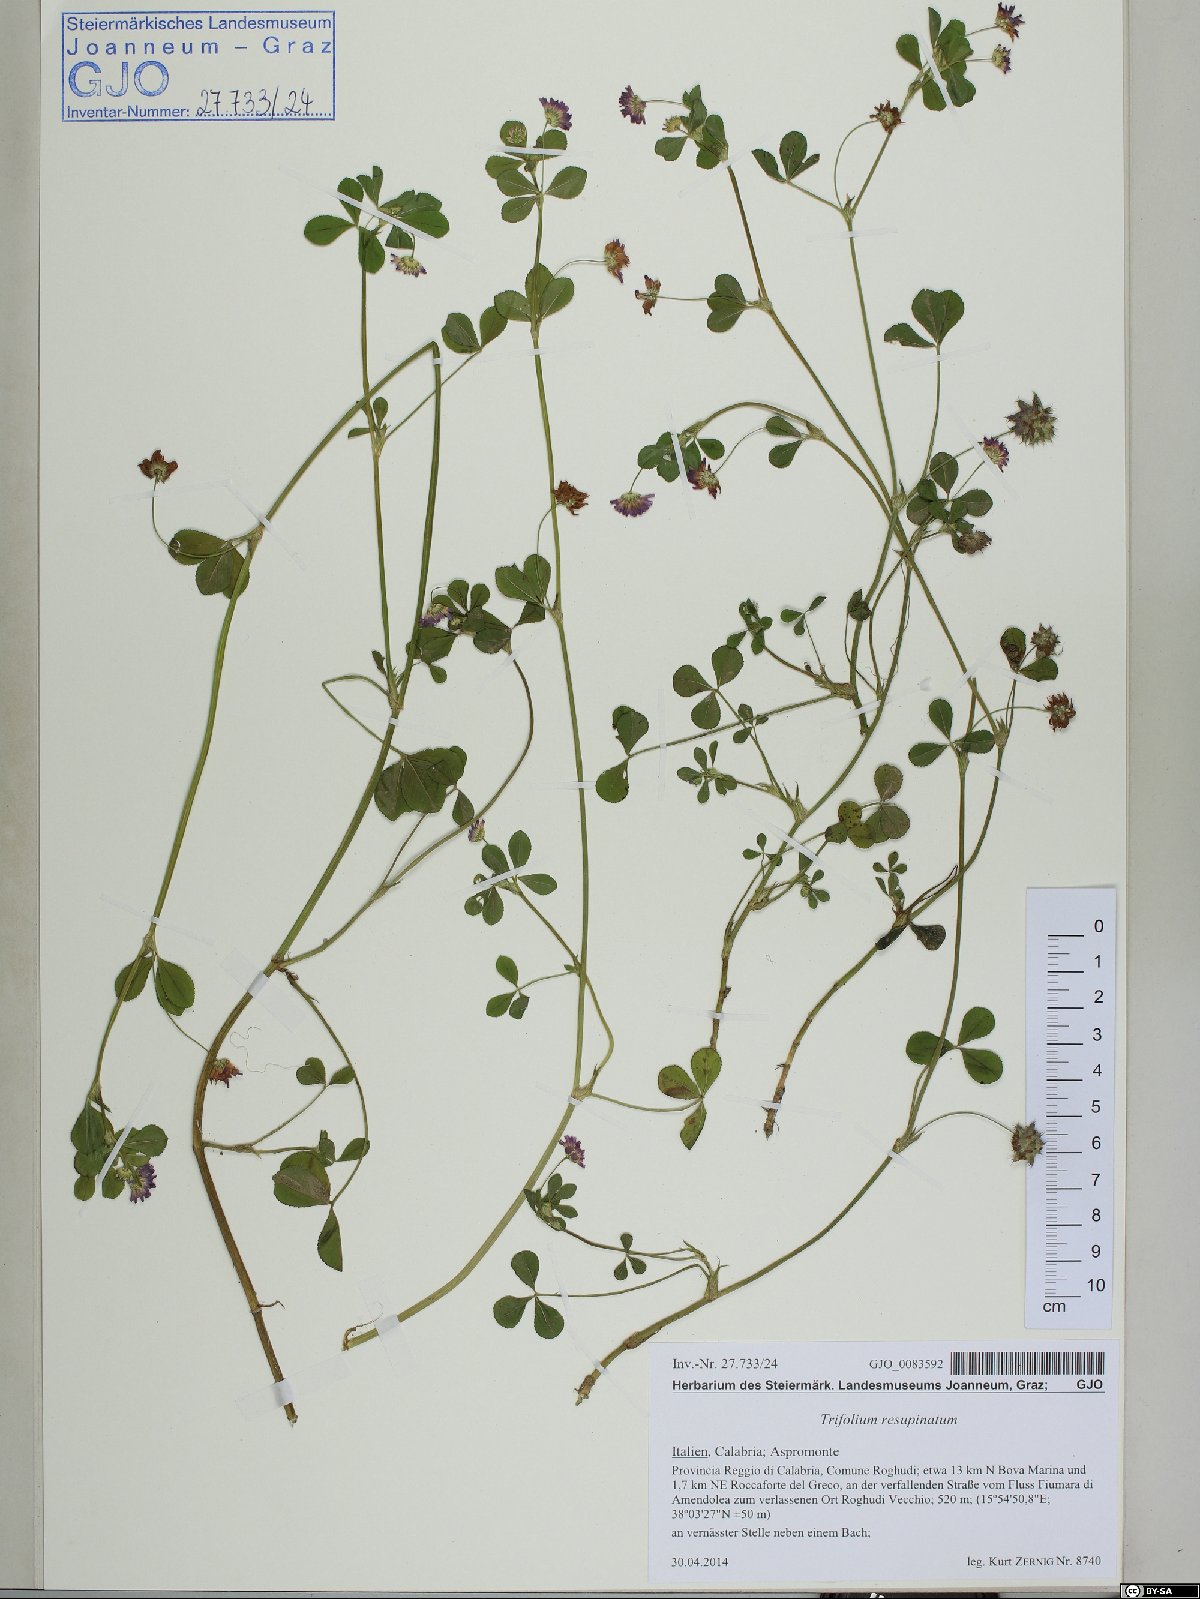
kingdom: Plantae
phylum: Tracheophyta
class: Magnoliopsida
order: Fabales
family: Fabaceae
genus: Trifolium
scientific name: Trifolium resupinatum
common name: Reversed clover
